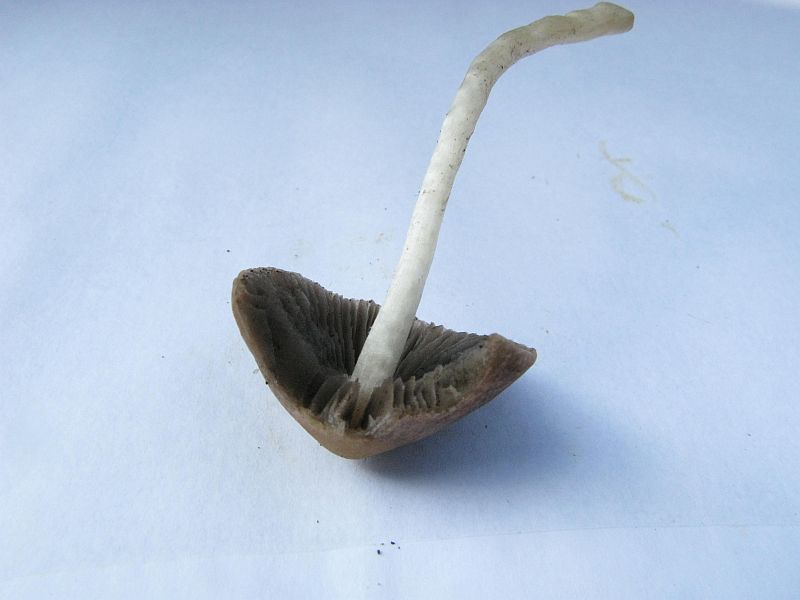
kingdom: Fungi
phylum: Basidiomycota
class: Agaricomycetes
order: Agaricales
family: Psathyrellaceae
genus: Psathyrella
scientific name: Psathyrella senex
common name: brunøjet mørkhat
